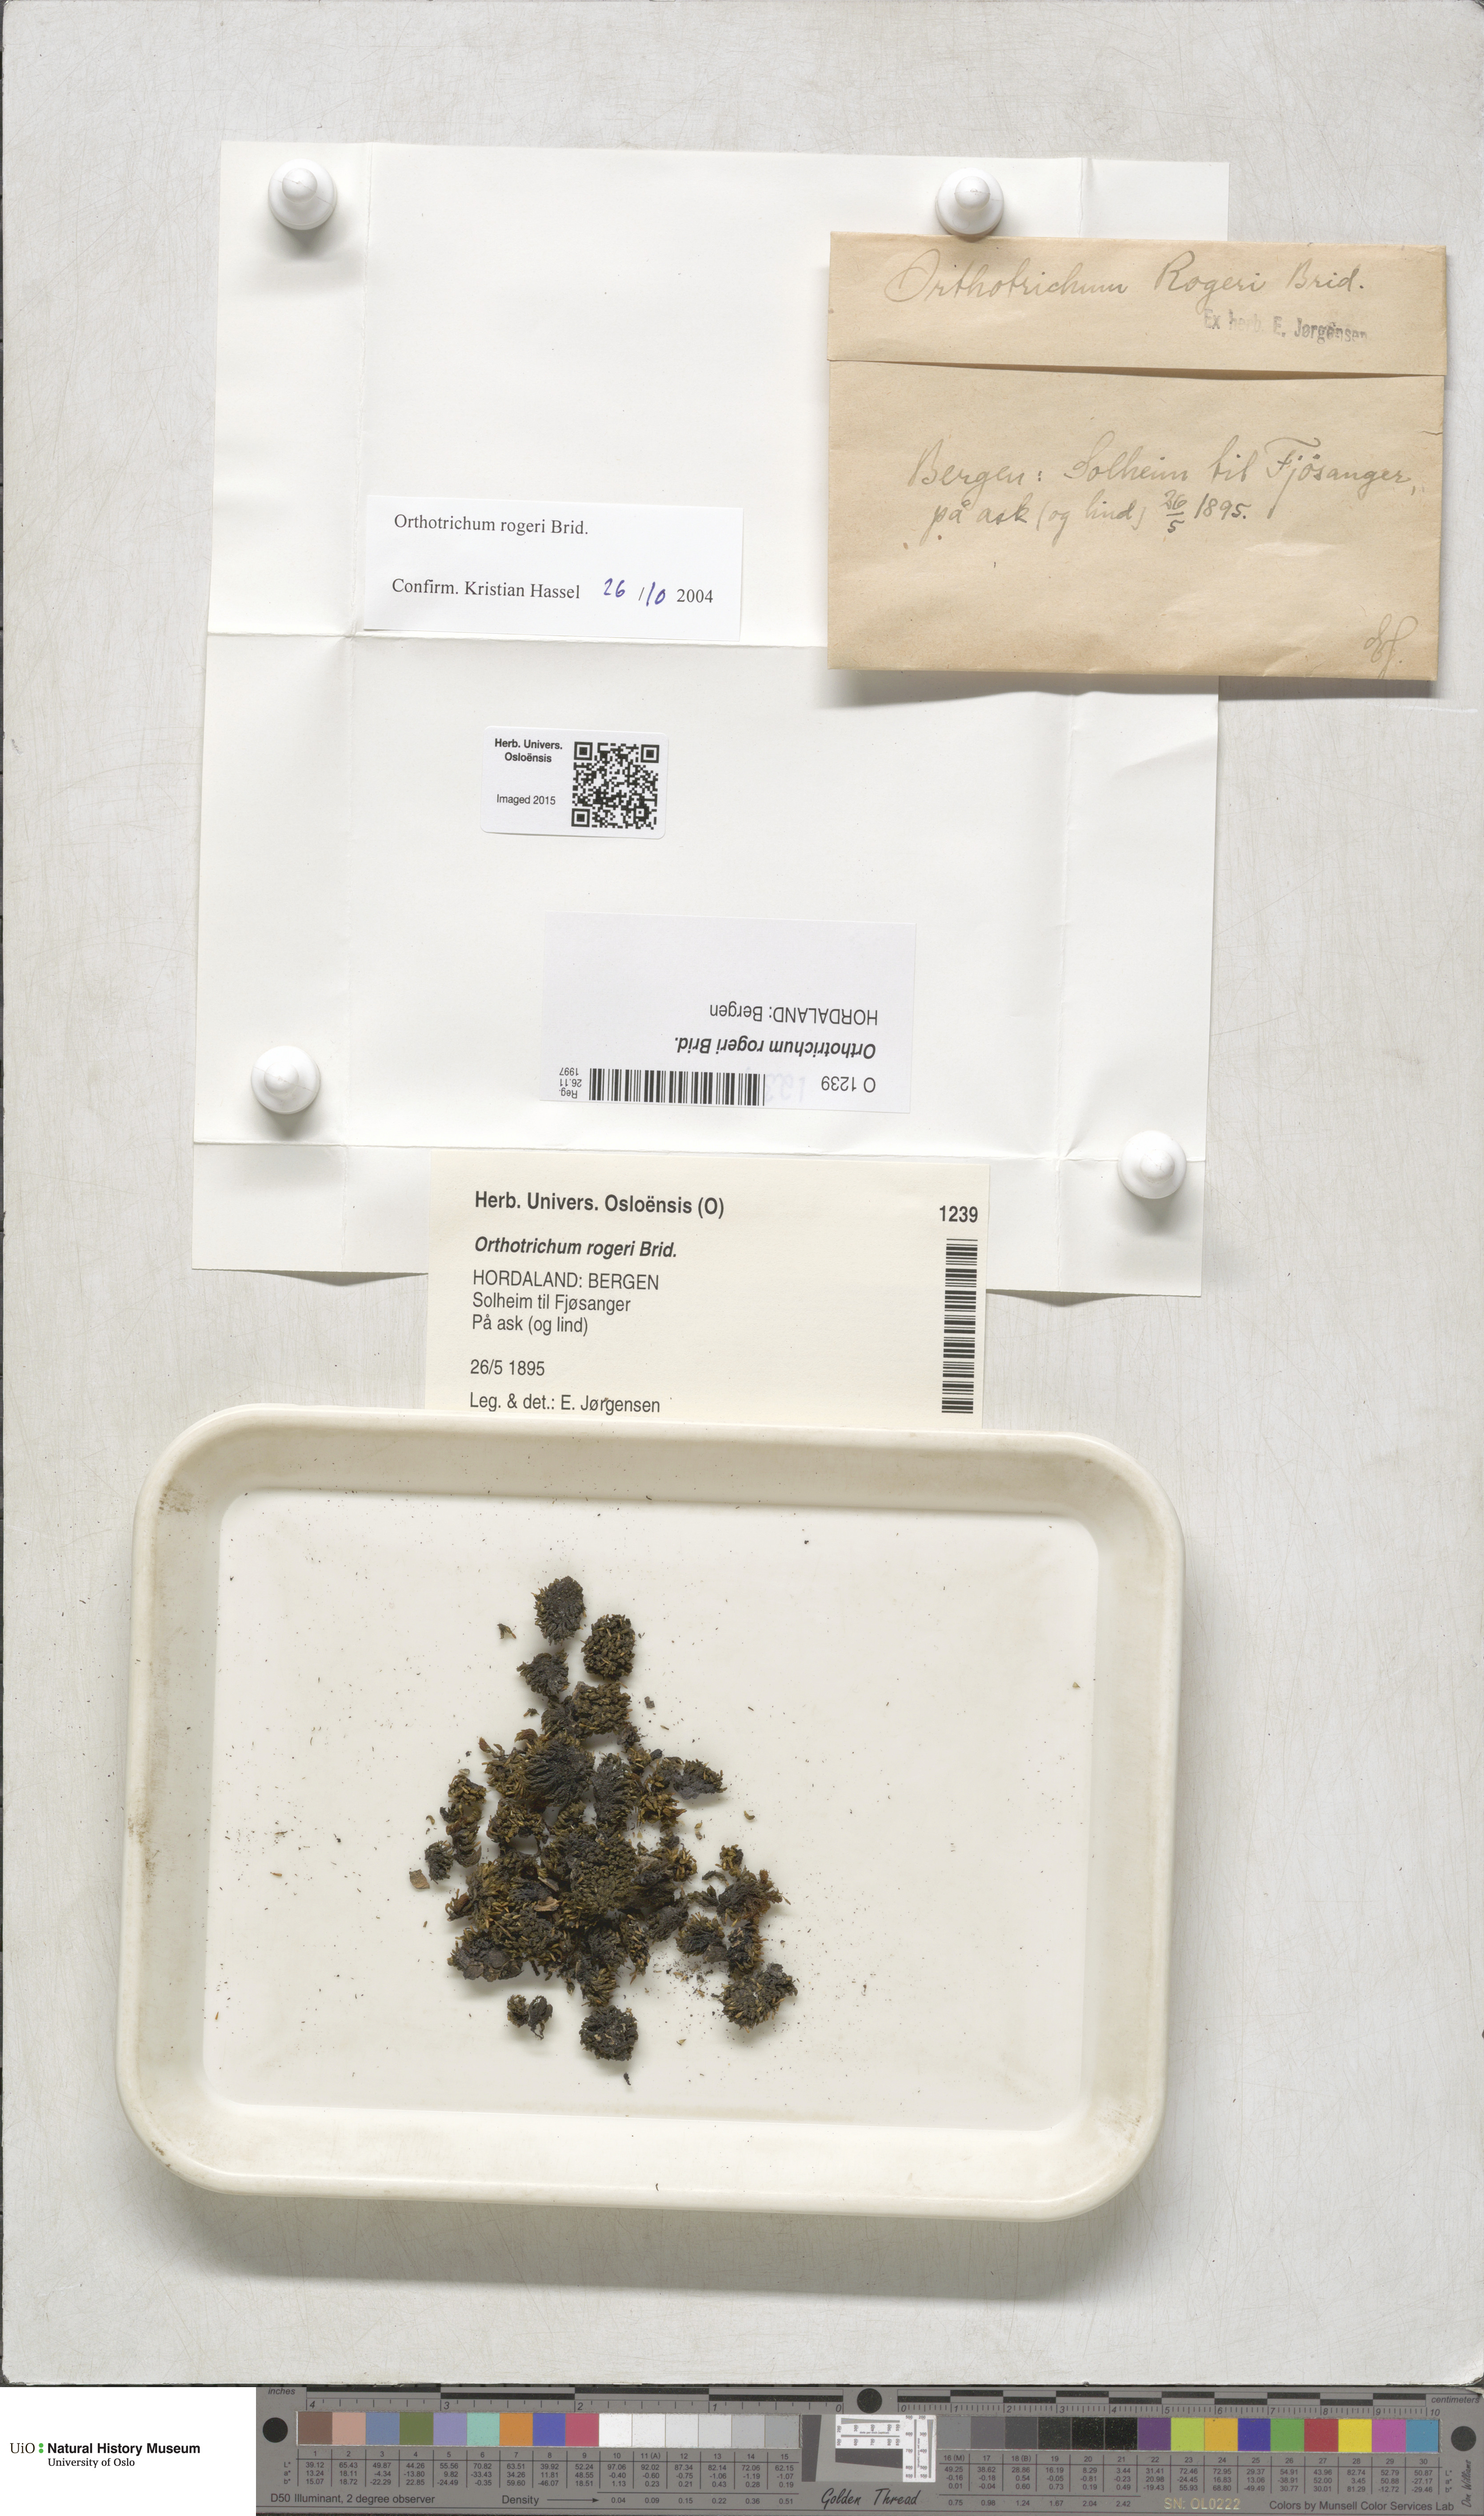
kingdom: Plantae
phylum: Bryophyta
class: Bryopsida
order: Orthotrichales
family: Orthotrichaceae
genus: Orthotrichum
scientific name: Orthotrichum rogeri
